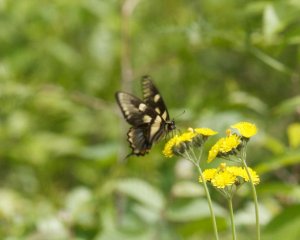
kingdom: Animalia
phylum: Arthropoda
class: Insecta
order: Lepidoptera
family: Papilionidae
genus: Pterourus
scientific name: Pterourus canadensis
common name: Canadian Tiger Swallowtail
